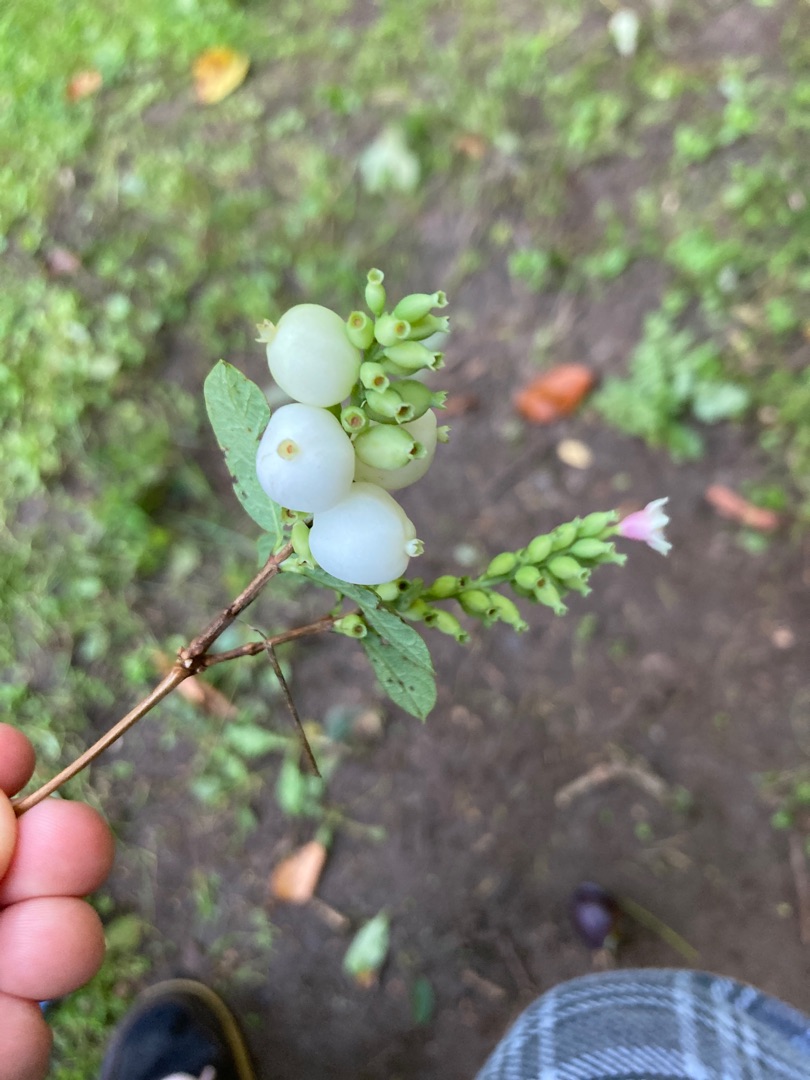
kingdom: Plantae
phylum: Tracheophyta
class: Magnoliopsida
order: Dipsacales
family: Caprifoliaceae
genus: Symphoricarpos
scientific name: Symphoricarpos albus
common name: Almindelig snebær
